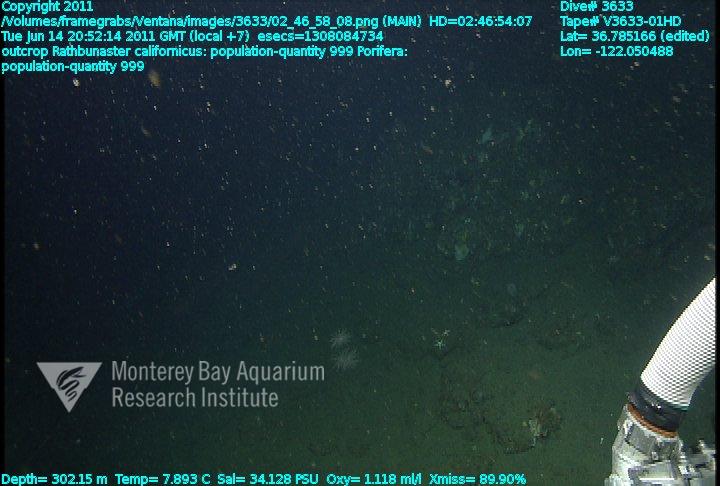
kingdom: Animalia
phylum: Porifera
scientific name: Porifera
